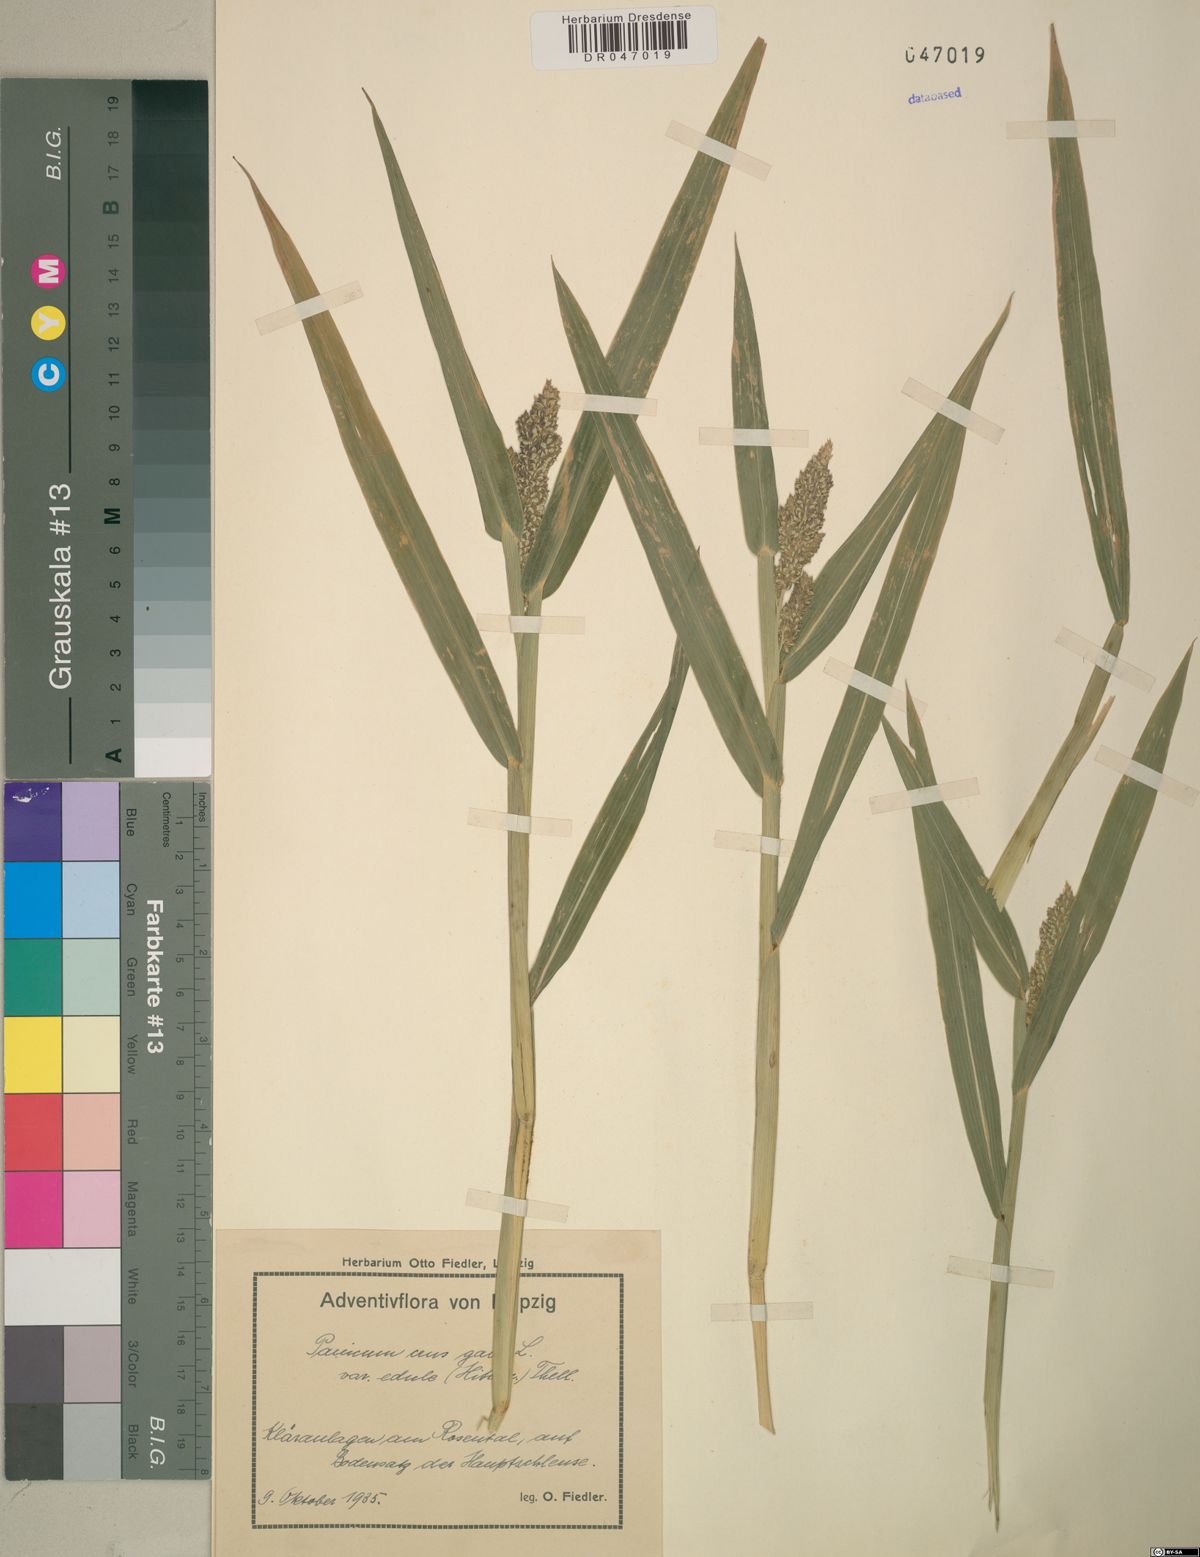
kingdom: Plantae
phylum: Tracheophyta
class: Liliopsida
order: Poales
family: Poaceae
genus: Panicum
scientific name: Panicum
